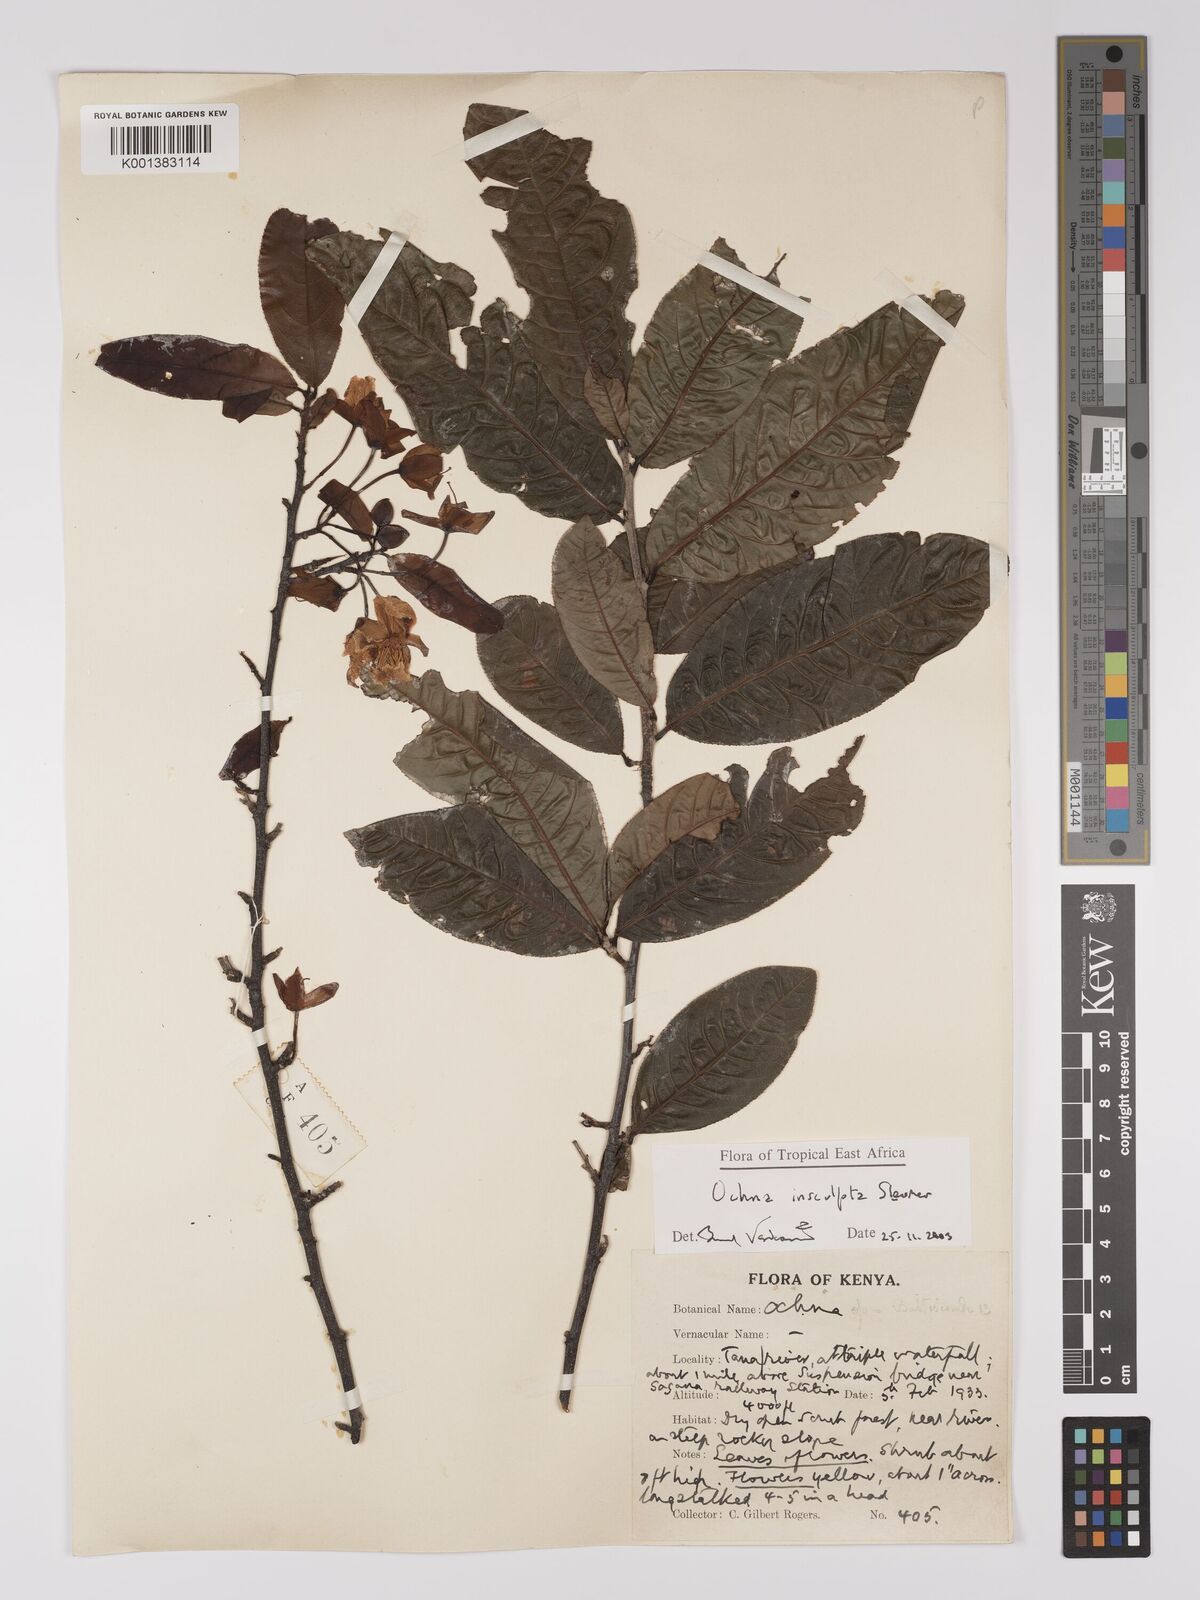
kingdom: Plantae
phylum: Tracheophyta
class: Magnoliopsida
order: Malpighiales
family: Ochnaceae
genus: Ochna
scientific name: Ochna insculpta
